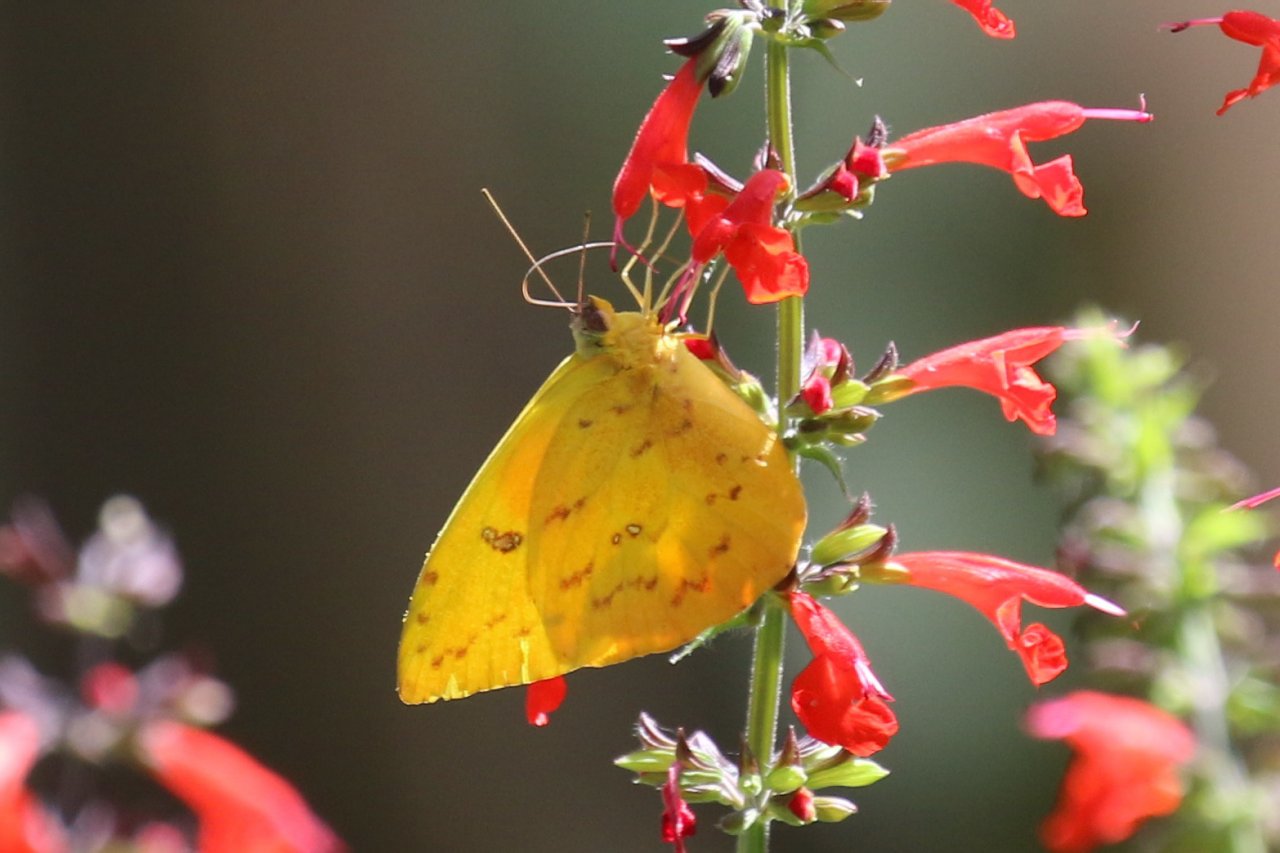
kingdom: Animalia
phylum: Arthropoda
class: Insecta
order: Lepidoptera
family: Pieridae
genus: Phoebis
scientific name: Phoebis philea
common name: Orange-barred Sulphur
